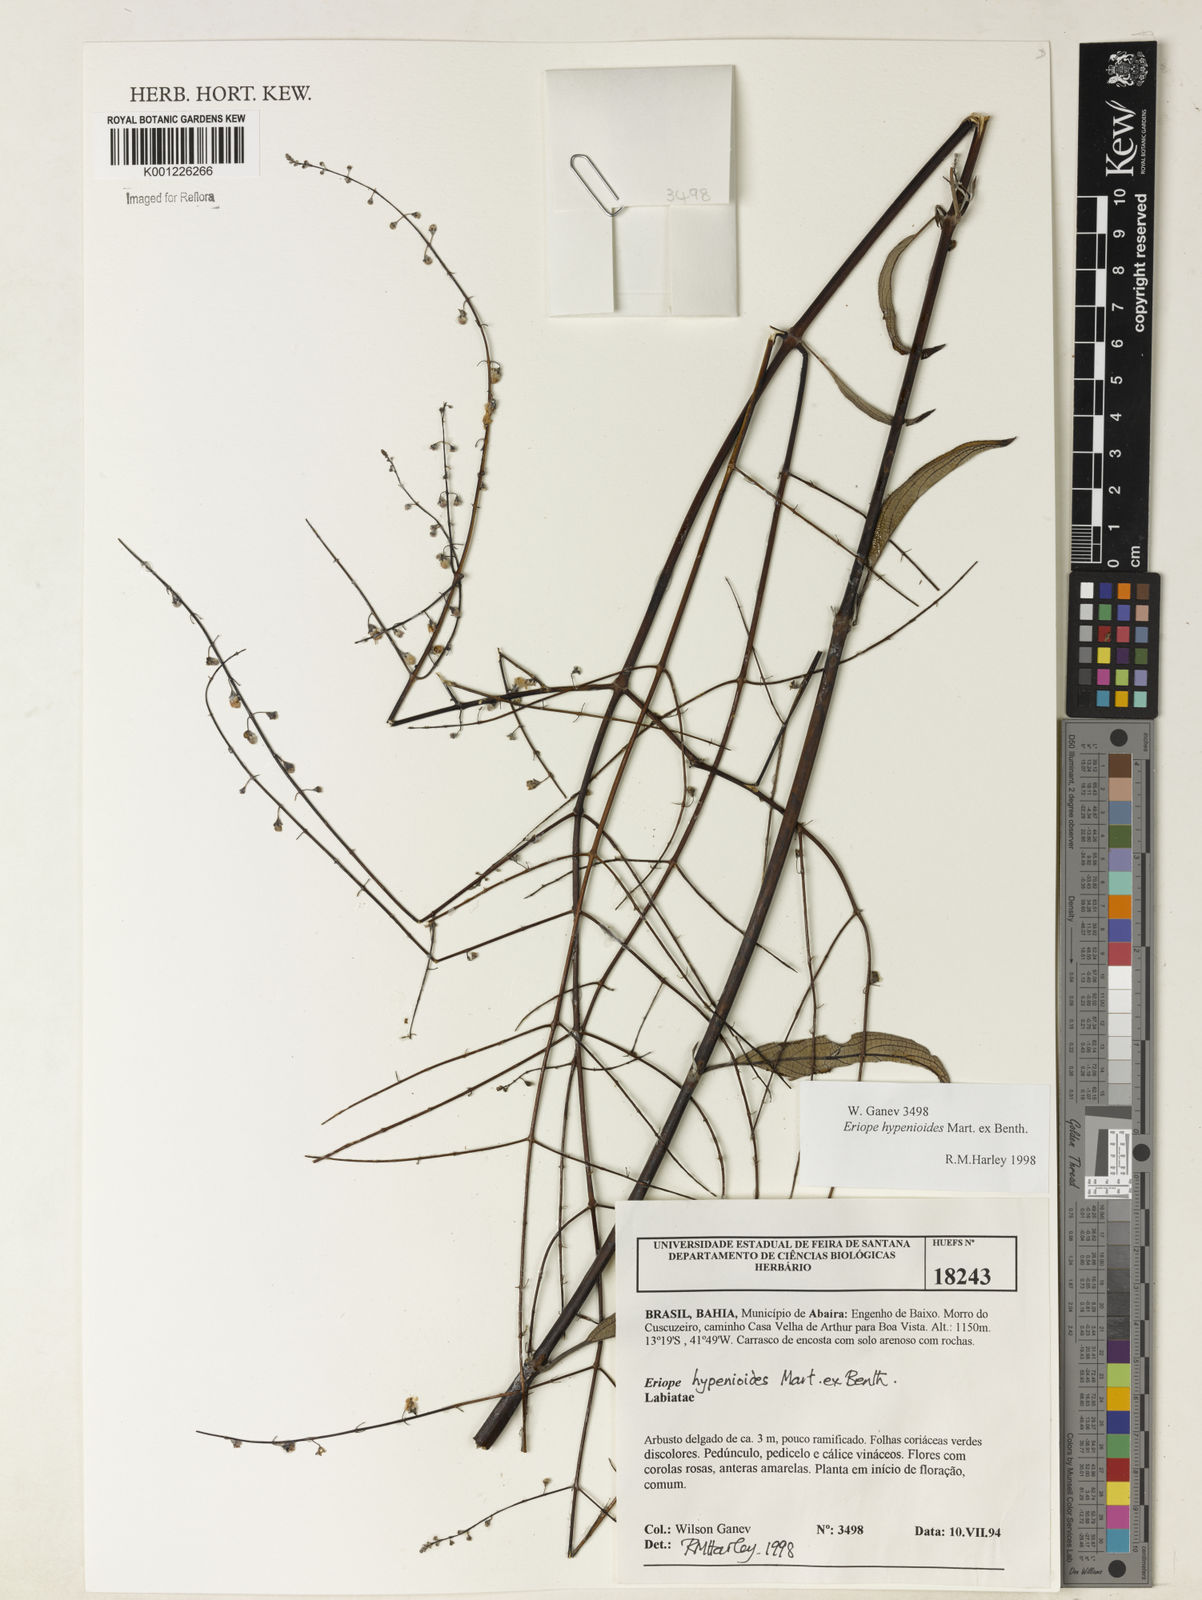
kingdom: Plantae
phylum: Tracheophyta
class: Magnoliopsida
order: Lamiales
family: Lamiaceae
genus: Eriope
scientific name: Eriope hypenioides
